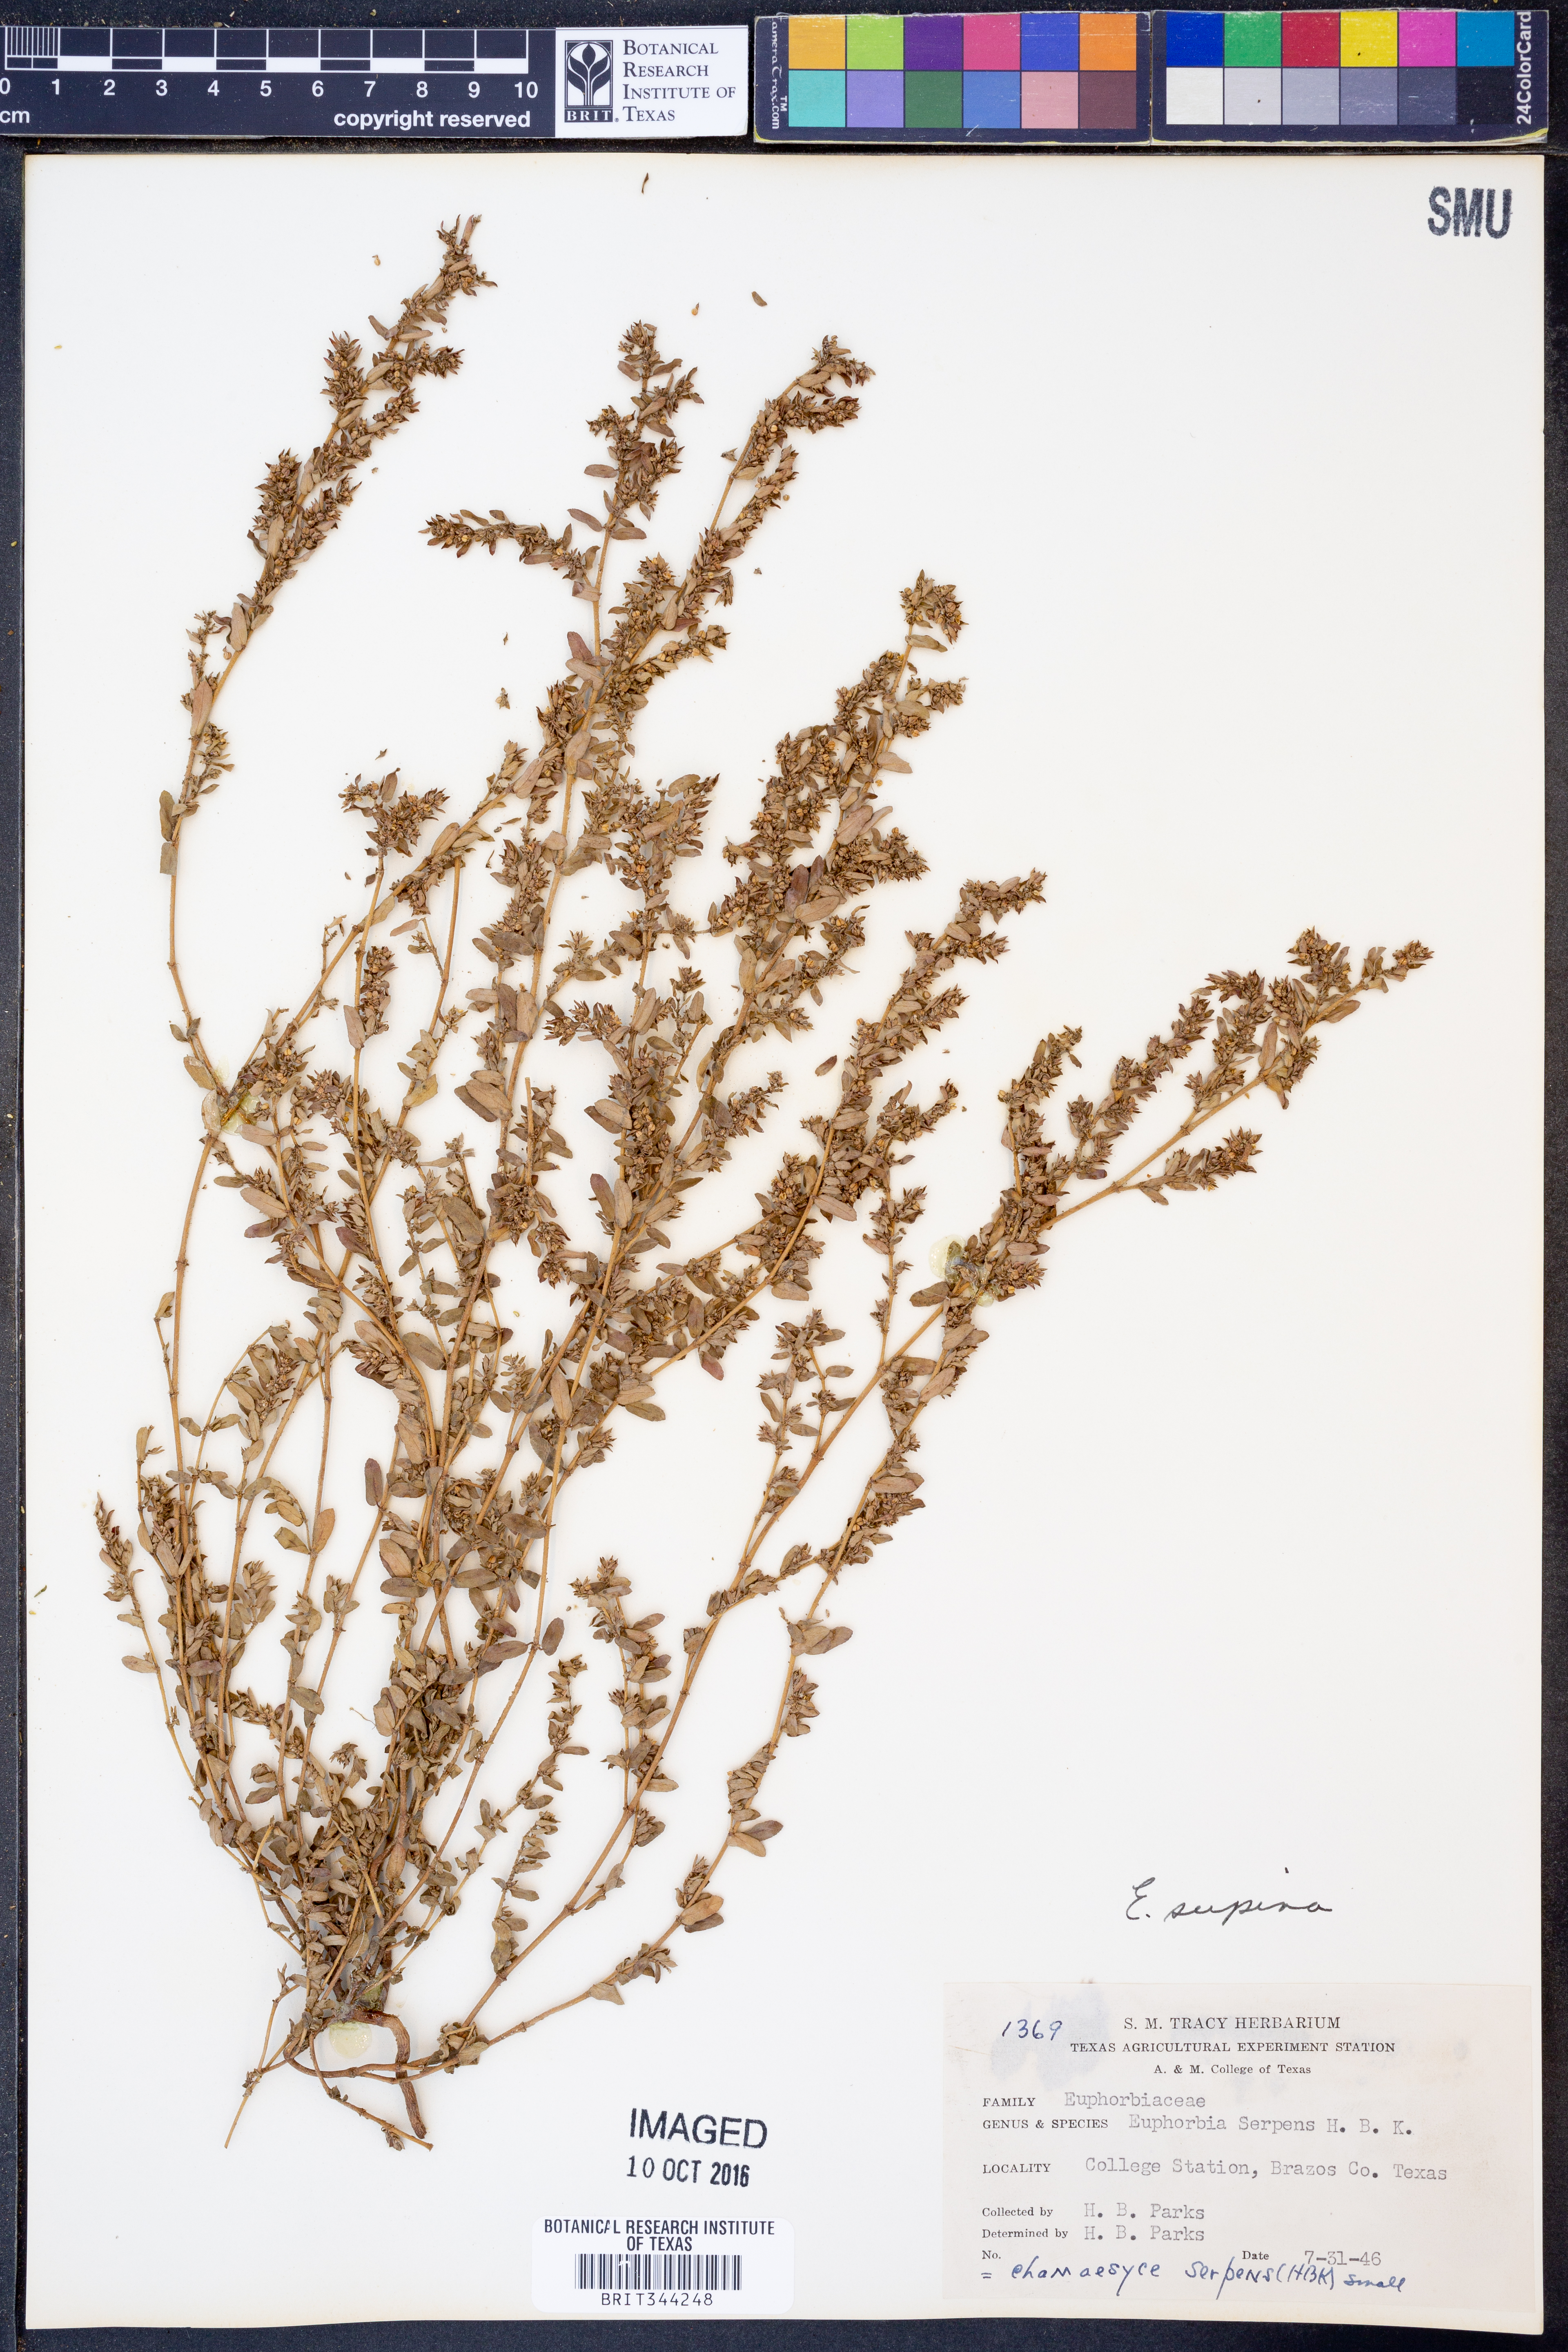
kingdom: Plantae
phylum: Tracheophyta
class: Magnoliopsida
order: Malpighiales
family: Euphorbiaceae
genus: Euphorbia
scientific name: Euphorbia maculata
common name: Spotted spurge
